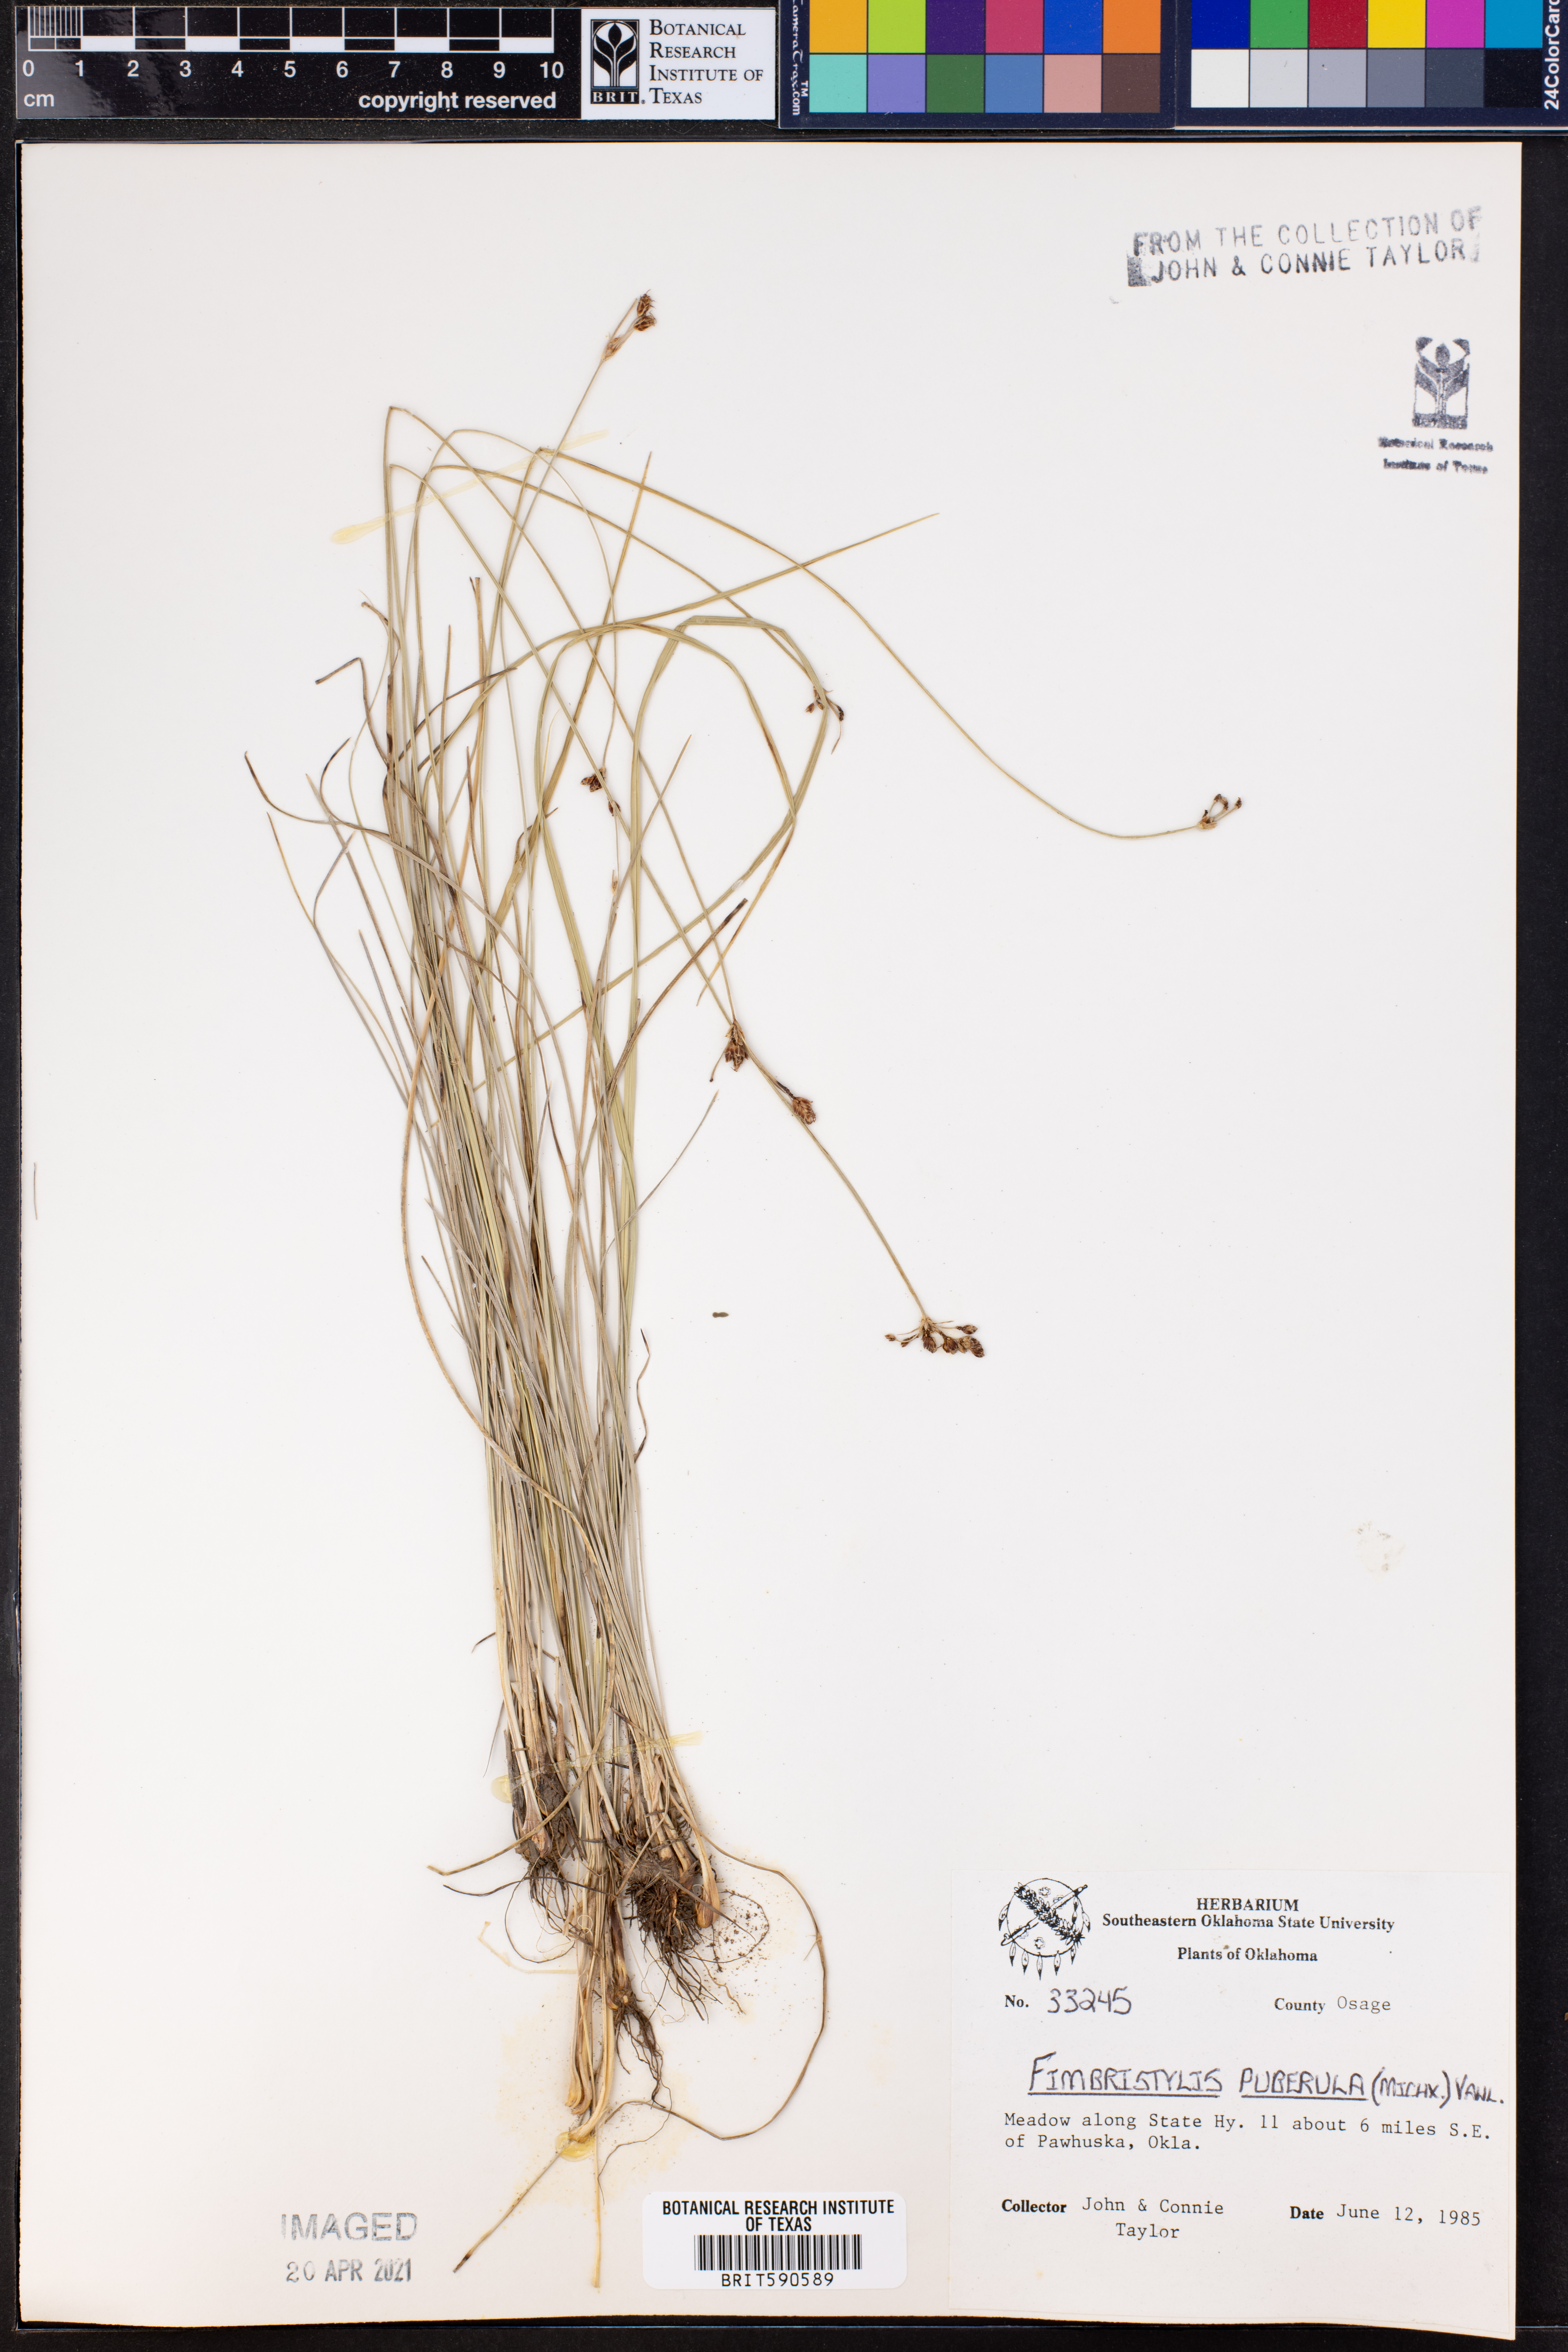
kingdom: Plantae
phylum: Tracheophyta
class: Liliopsida
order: Poales
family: Cyperaceae
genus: Fimbristylis
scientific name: Fimbristylis puberula
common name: Hairy fimbristylis
